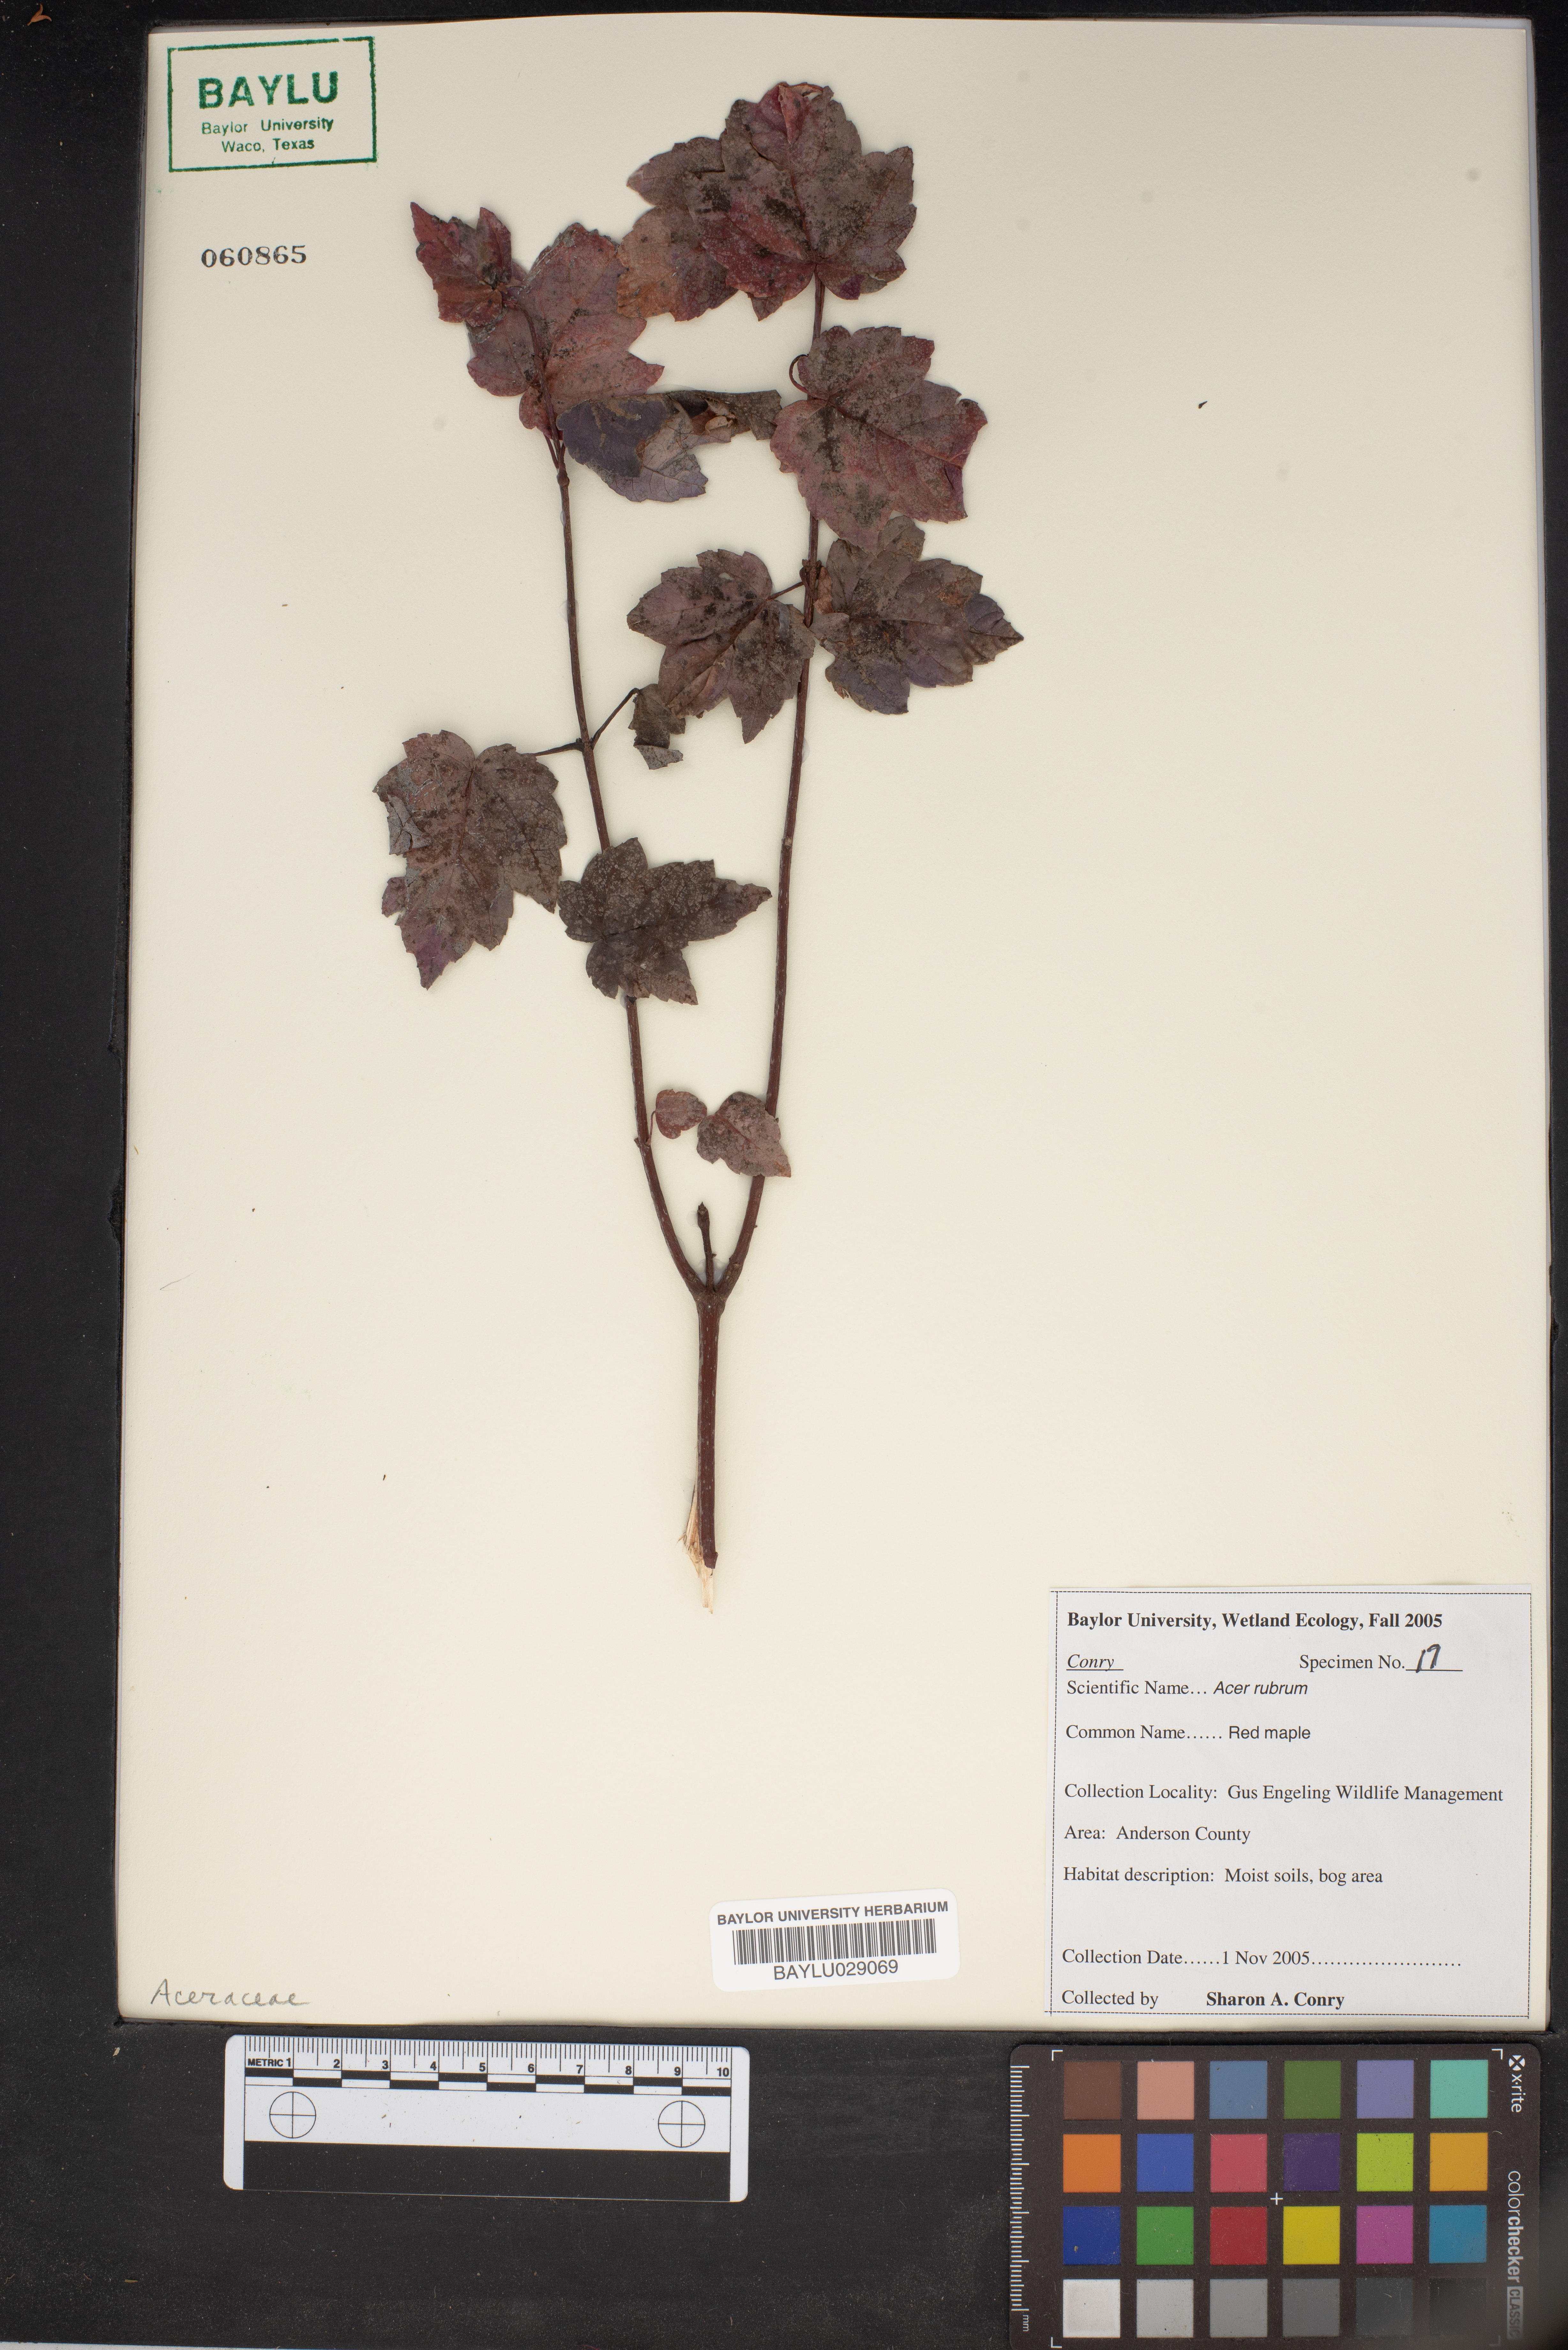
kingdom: Plantae
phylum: Tracheophyta
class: Magnoliopsida
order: Sapindales
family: Sapindaceae
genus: Acer
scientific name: Acer rubrum
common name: Red maple
